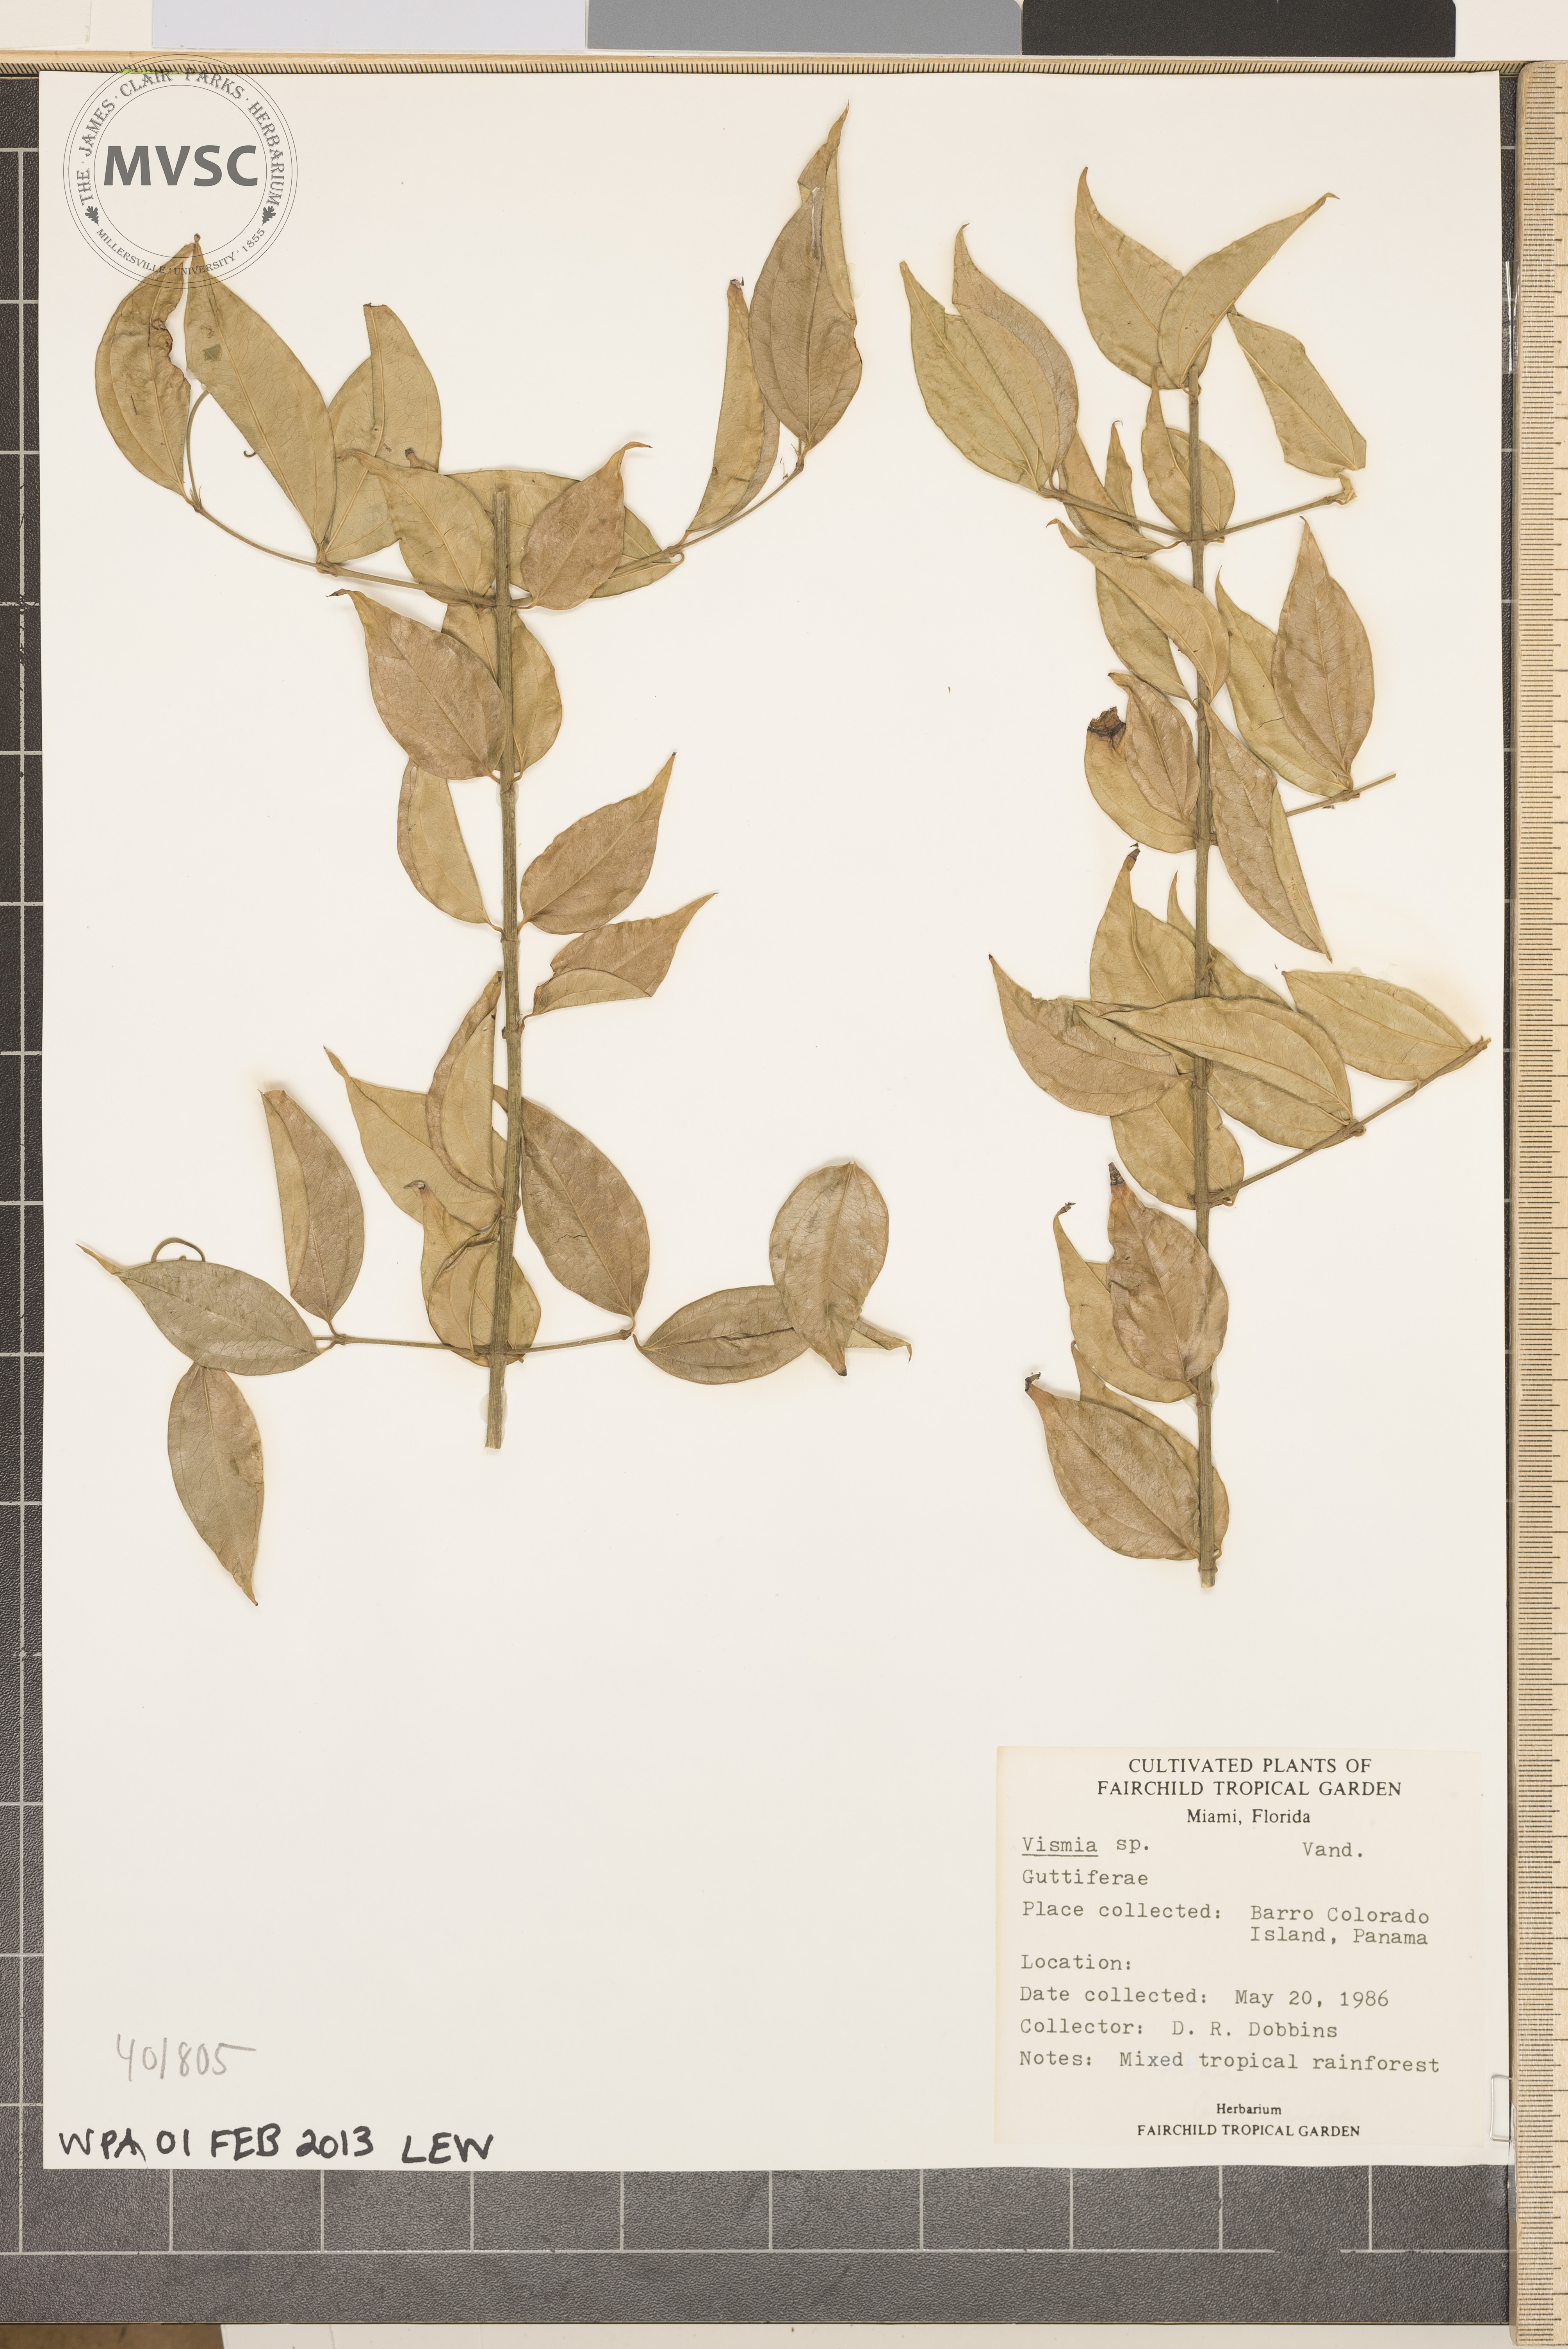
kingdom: Plantae
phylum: Tracheophyta
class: Magnoliopsida
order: Malpighiales
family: Hypericaceae
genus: Vismia
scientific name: Vismia
